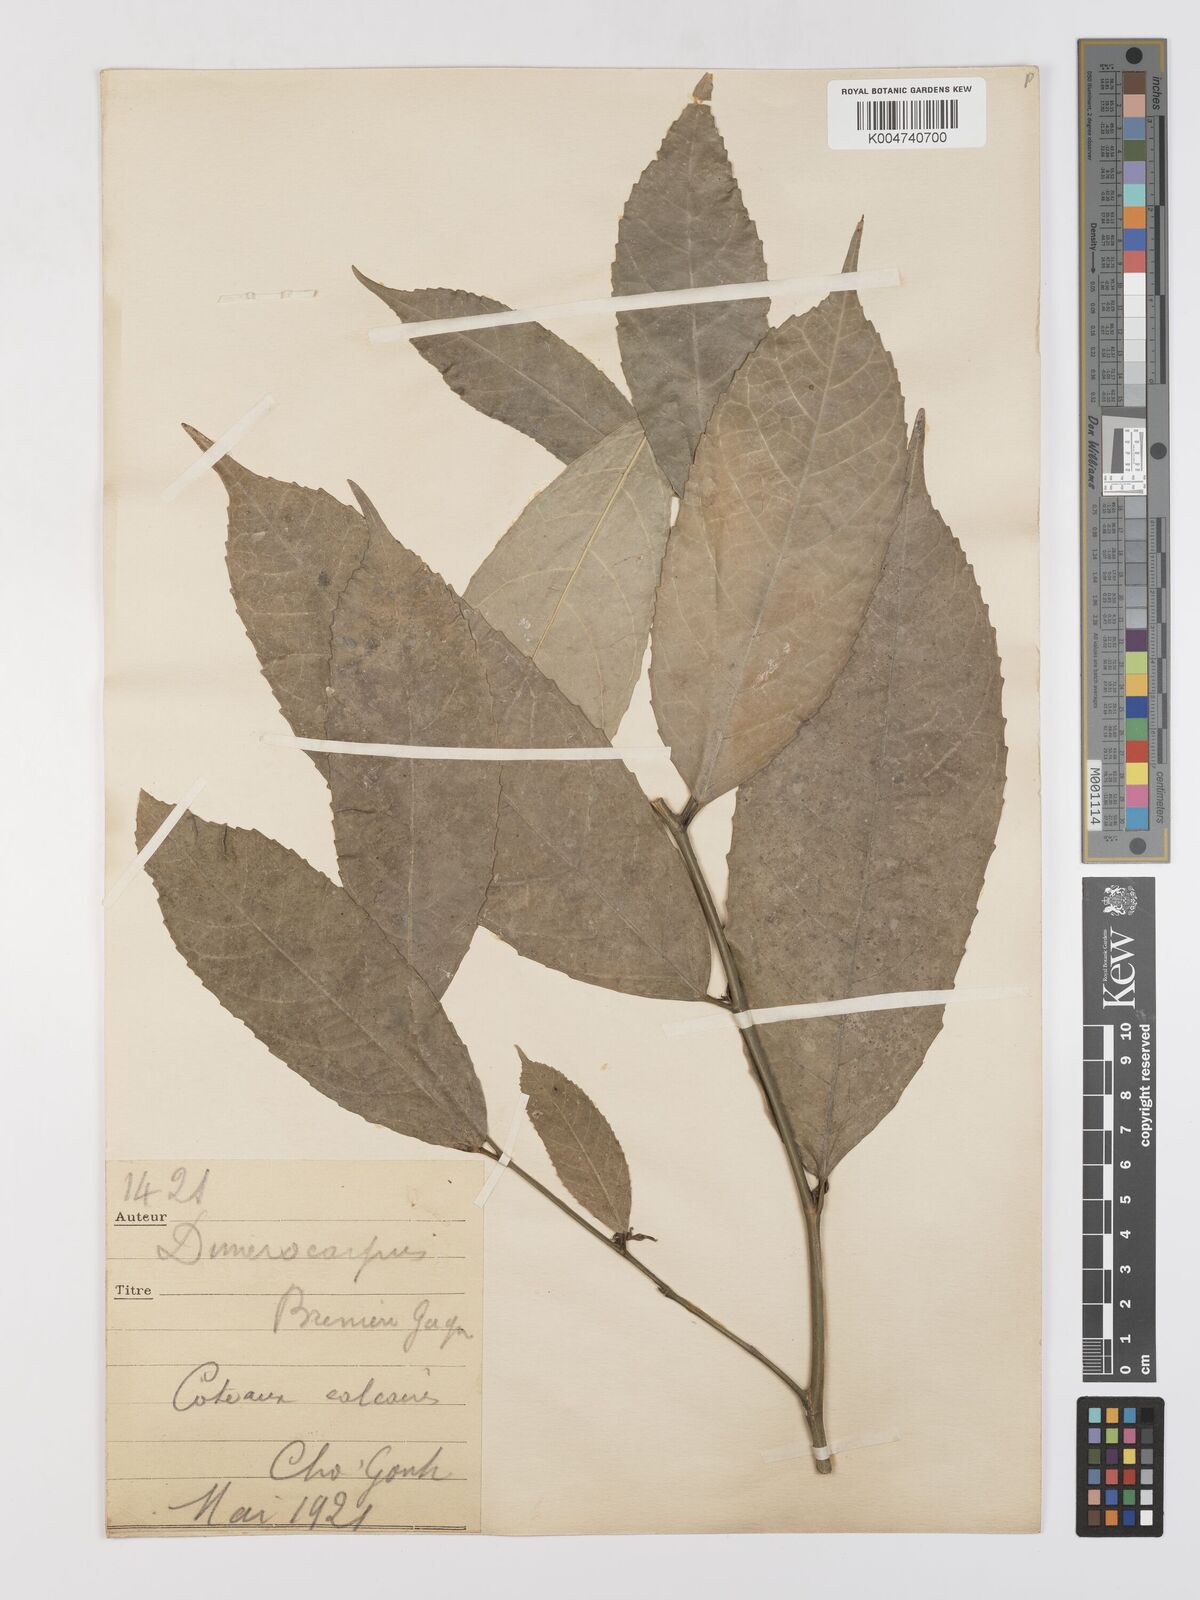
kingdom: Plantae
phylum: Tracheophyta
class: Magnoliopsida
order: Rosales
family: Moraceae
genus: Taxotrophis
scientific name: Taxotrophis macrophylla
